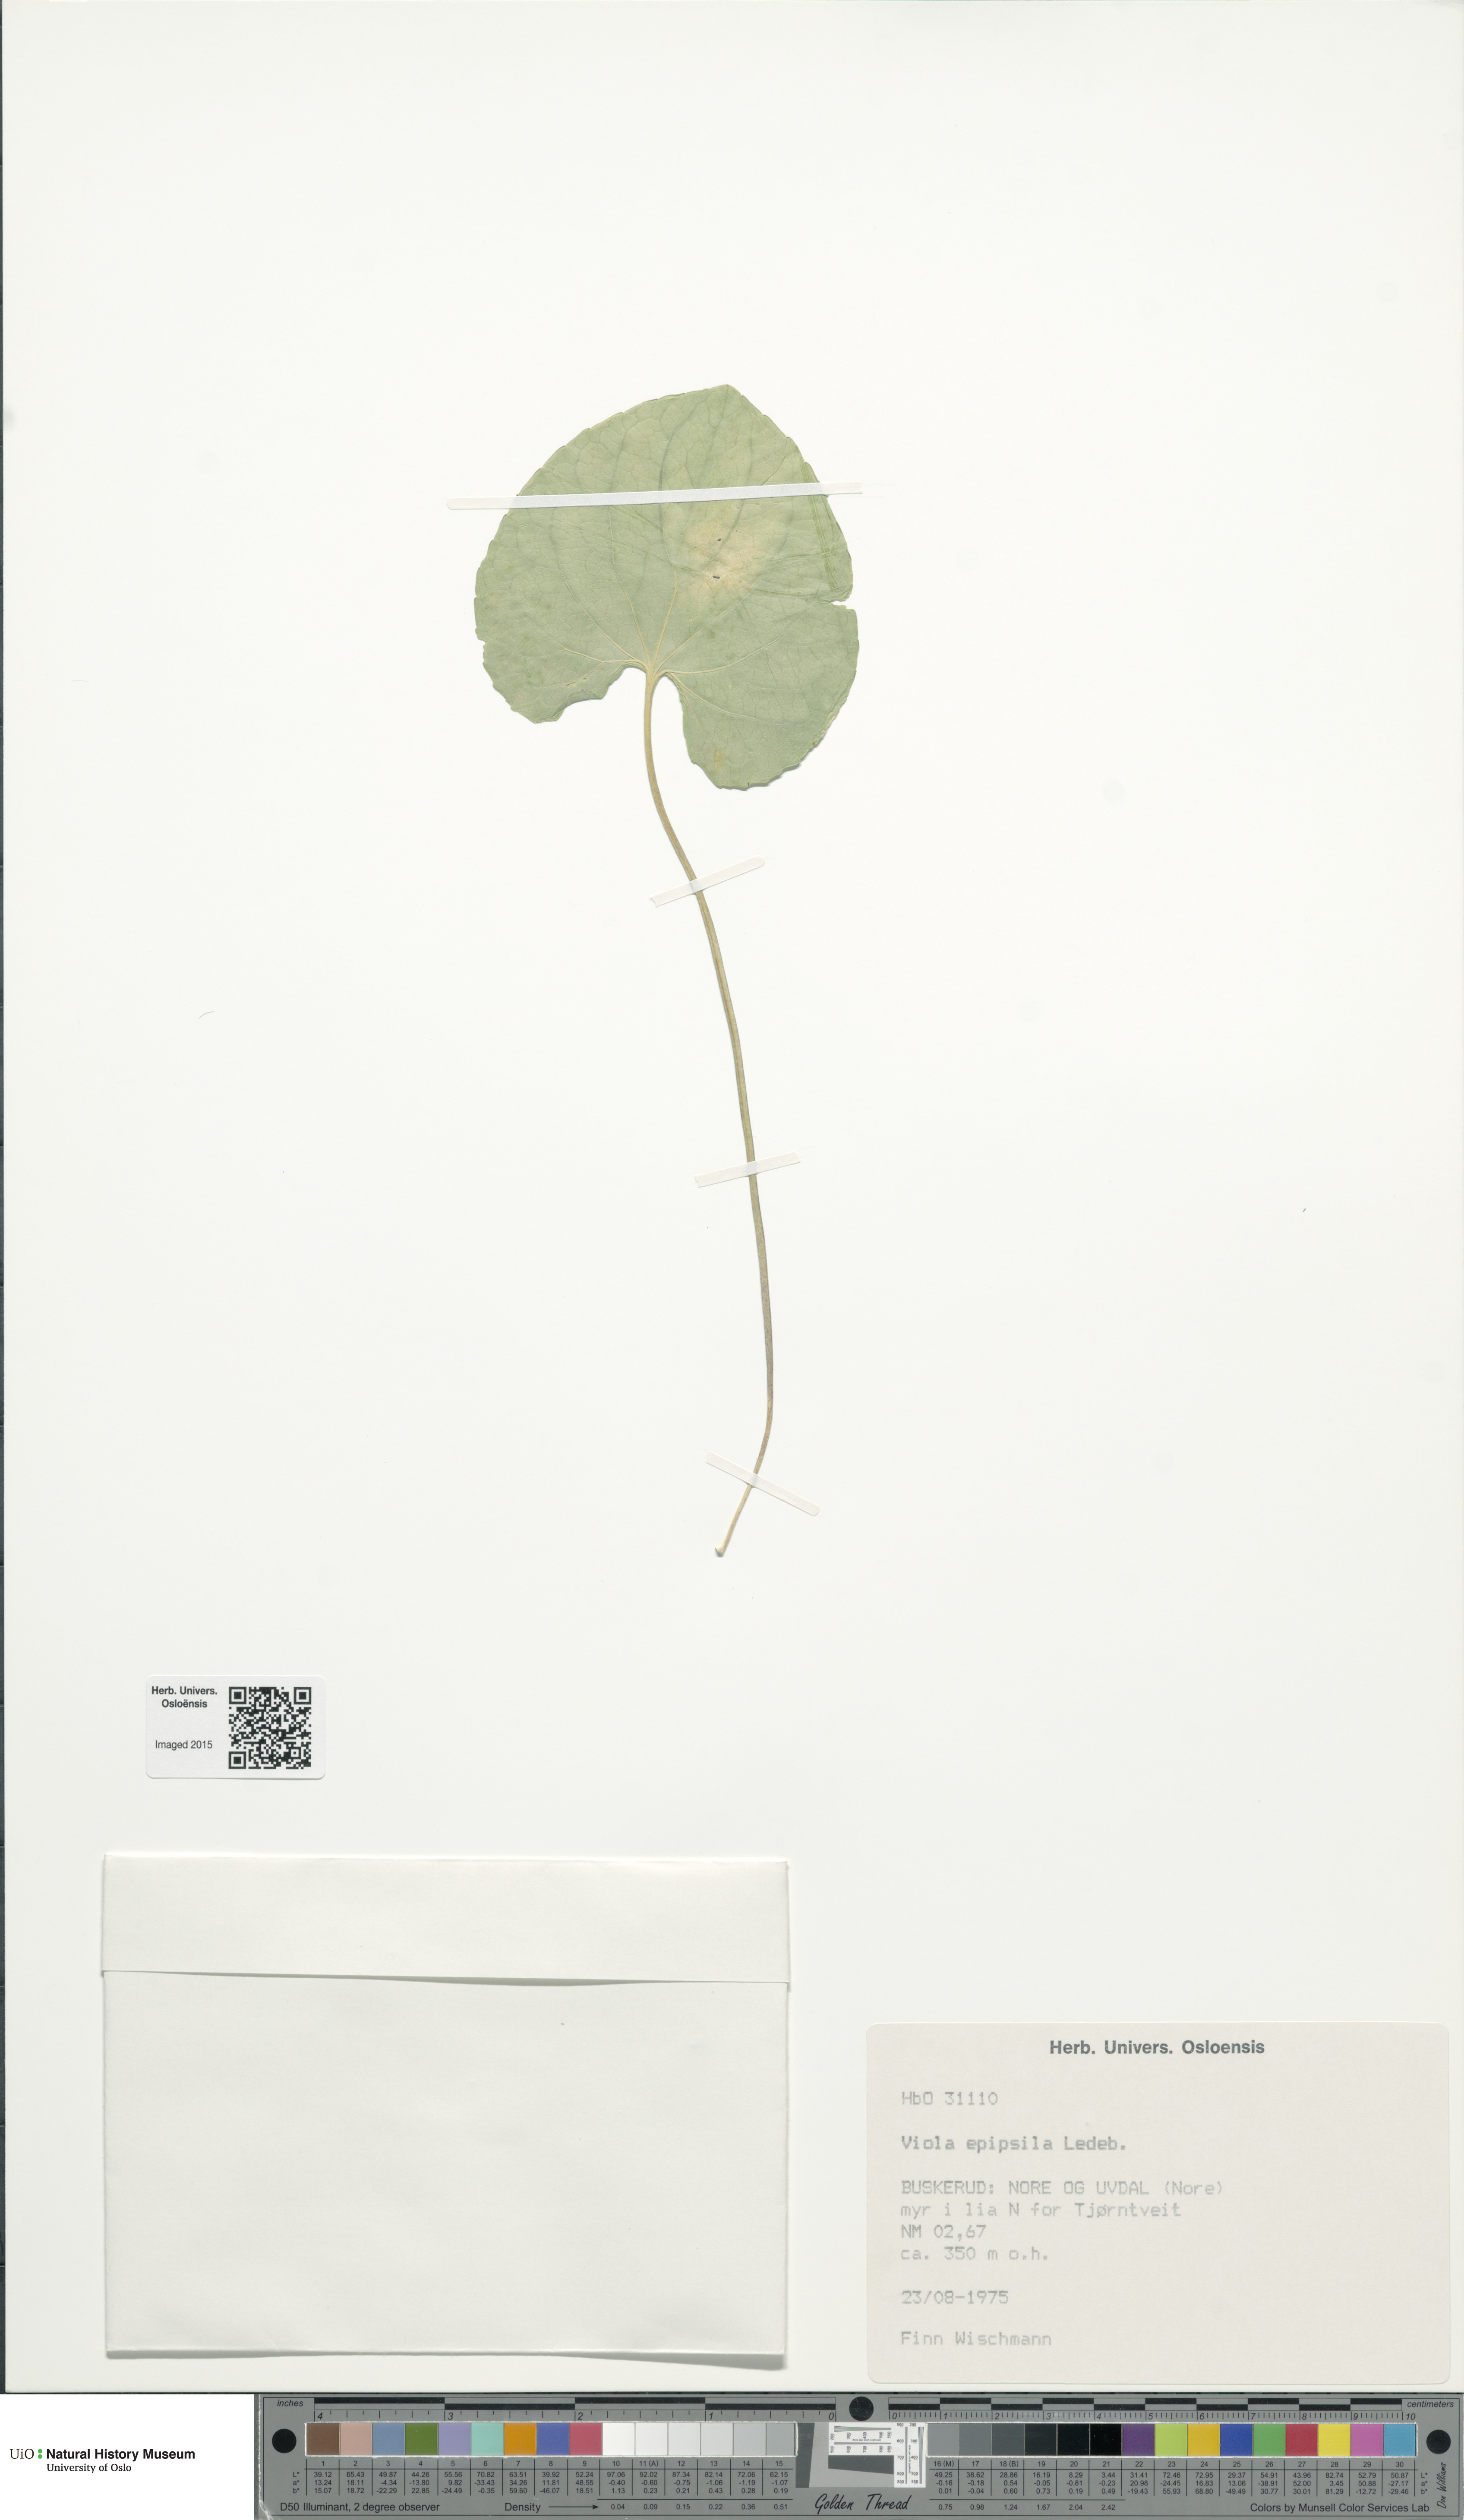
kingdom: Plantae
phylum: Tracheophyta
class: Magnoliopsida
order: Malpighiales
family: Violaceae
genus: Viola
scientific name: Viola epipsila
